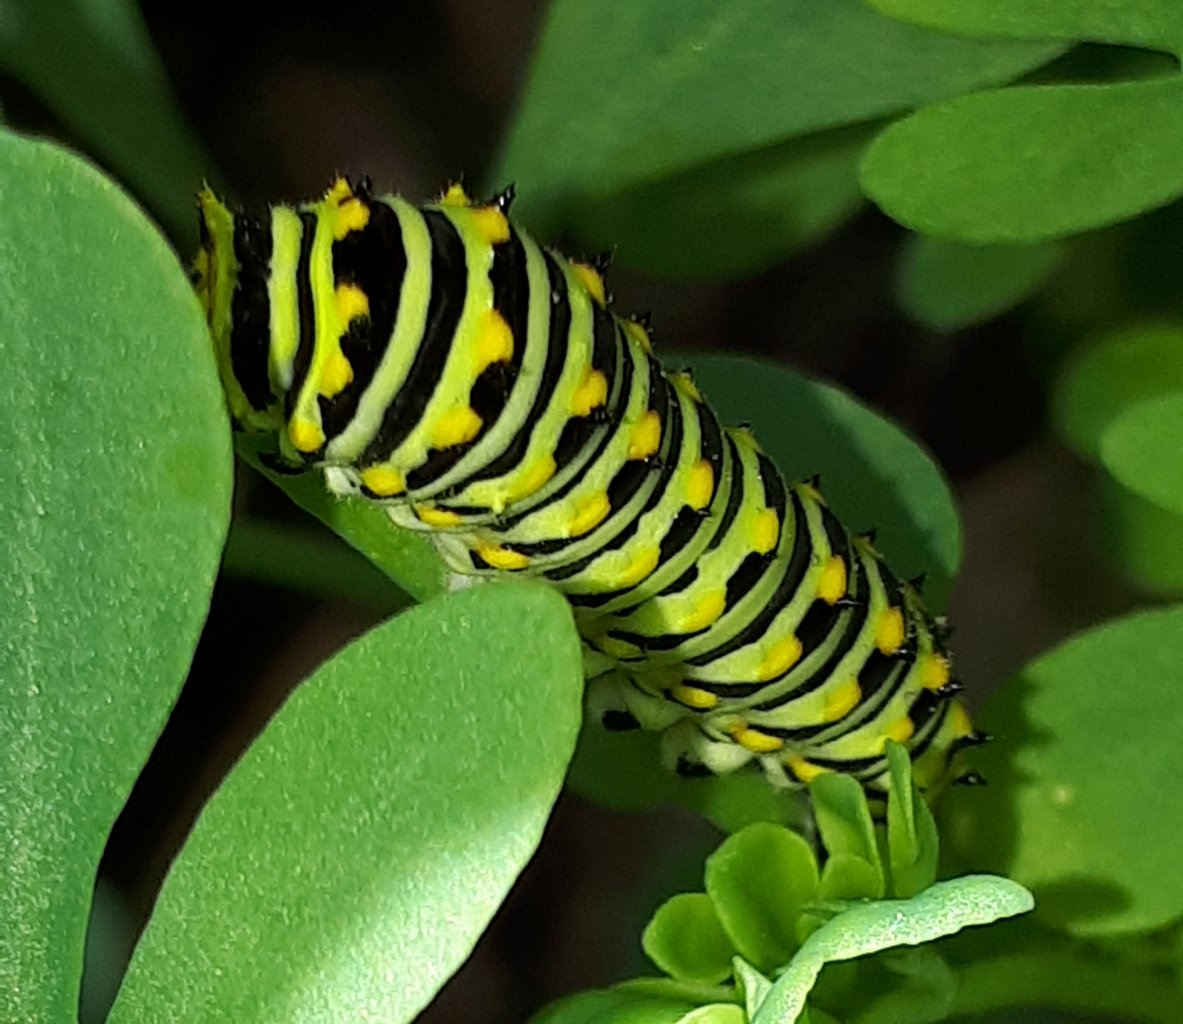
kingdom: Animalia
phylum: Arthropoda
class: Insecta
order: Lepidoptera
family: Papilionidae
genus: Papilio
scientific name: Papilio polyxenes
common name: Black Swallowtail
